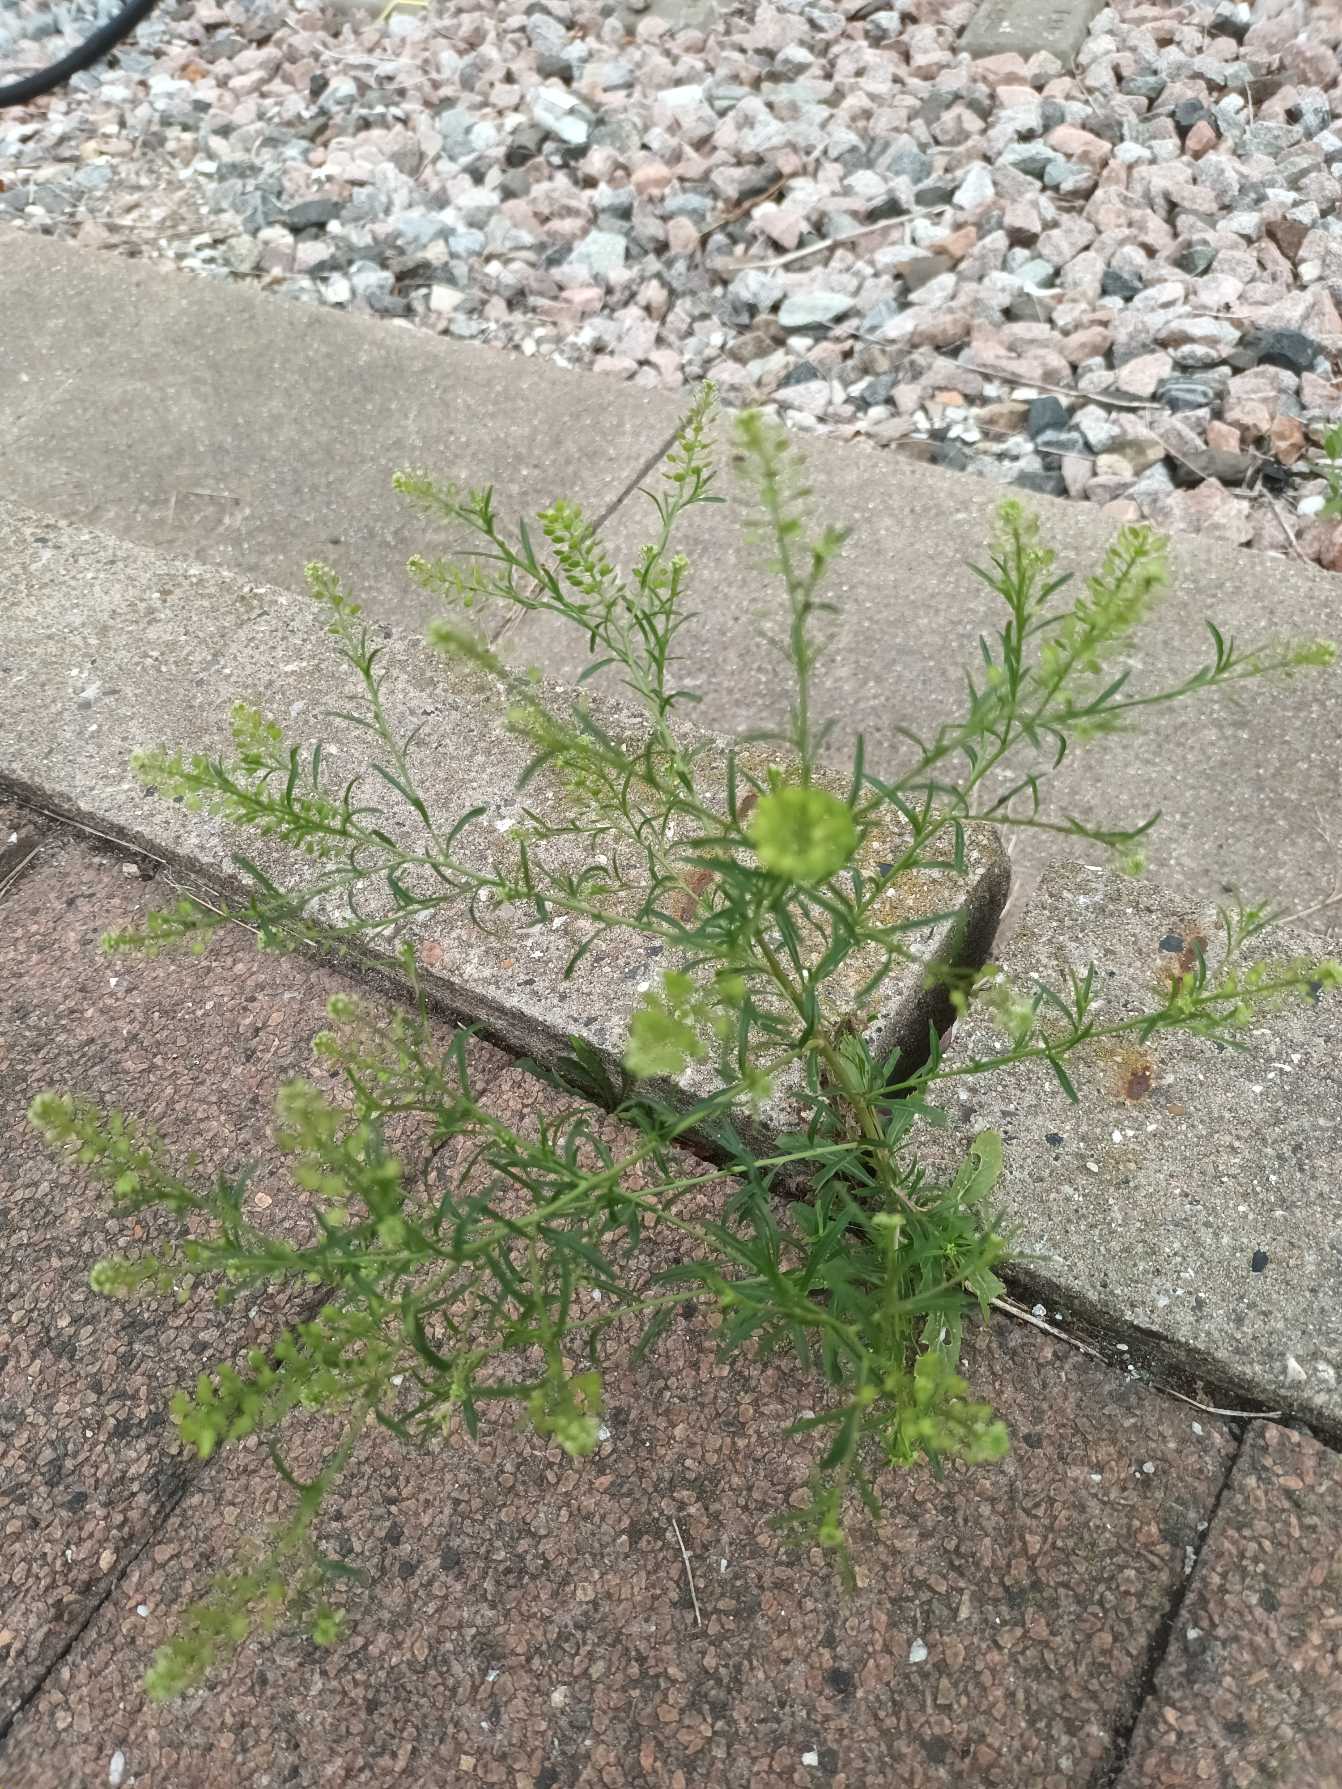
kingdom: Plantae
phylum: Tracheophyta
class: Magnoliopsida
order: Brassicales
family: Brassicaceae
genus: Lepidium
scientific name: Lepidium densiflorum
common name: Vingefrøet karse
